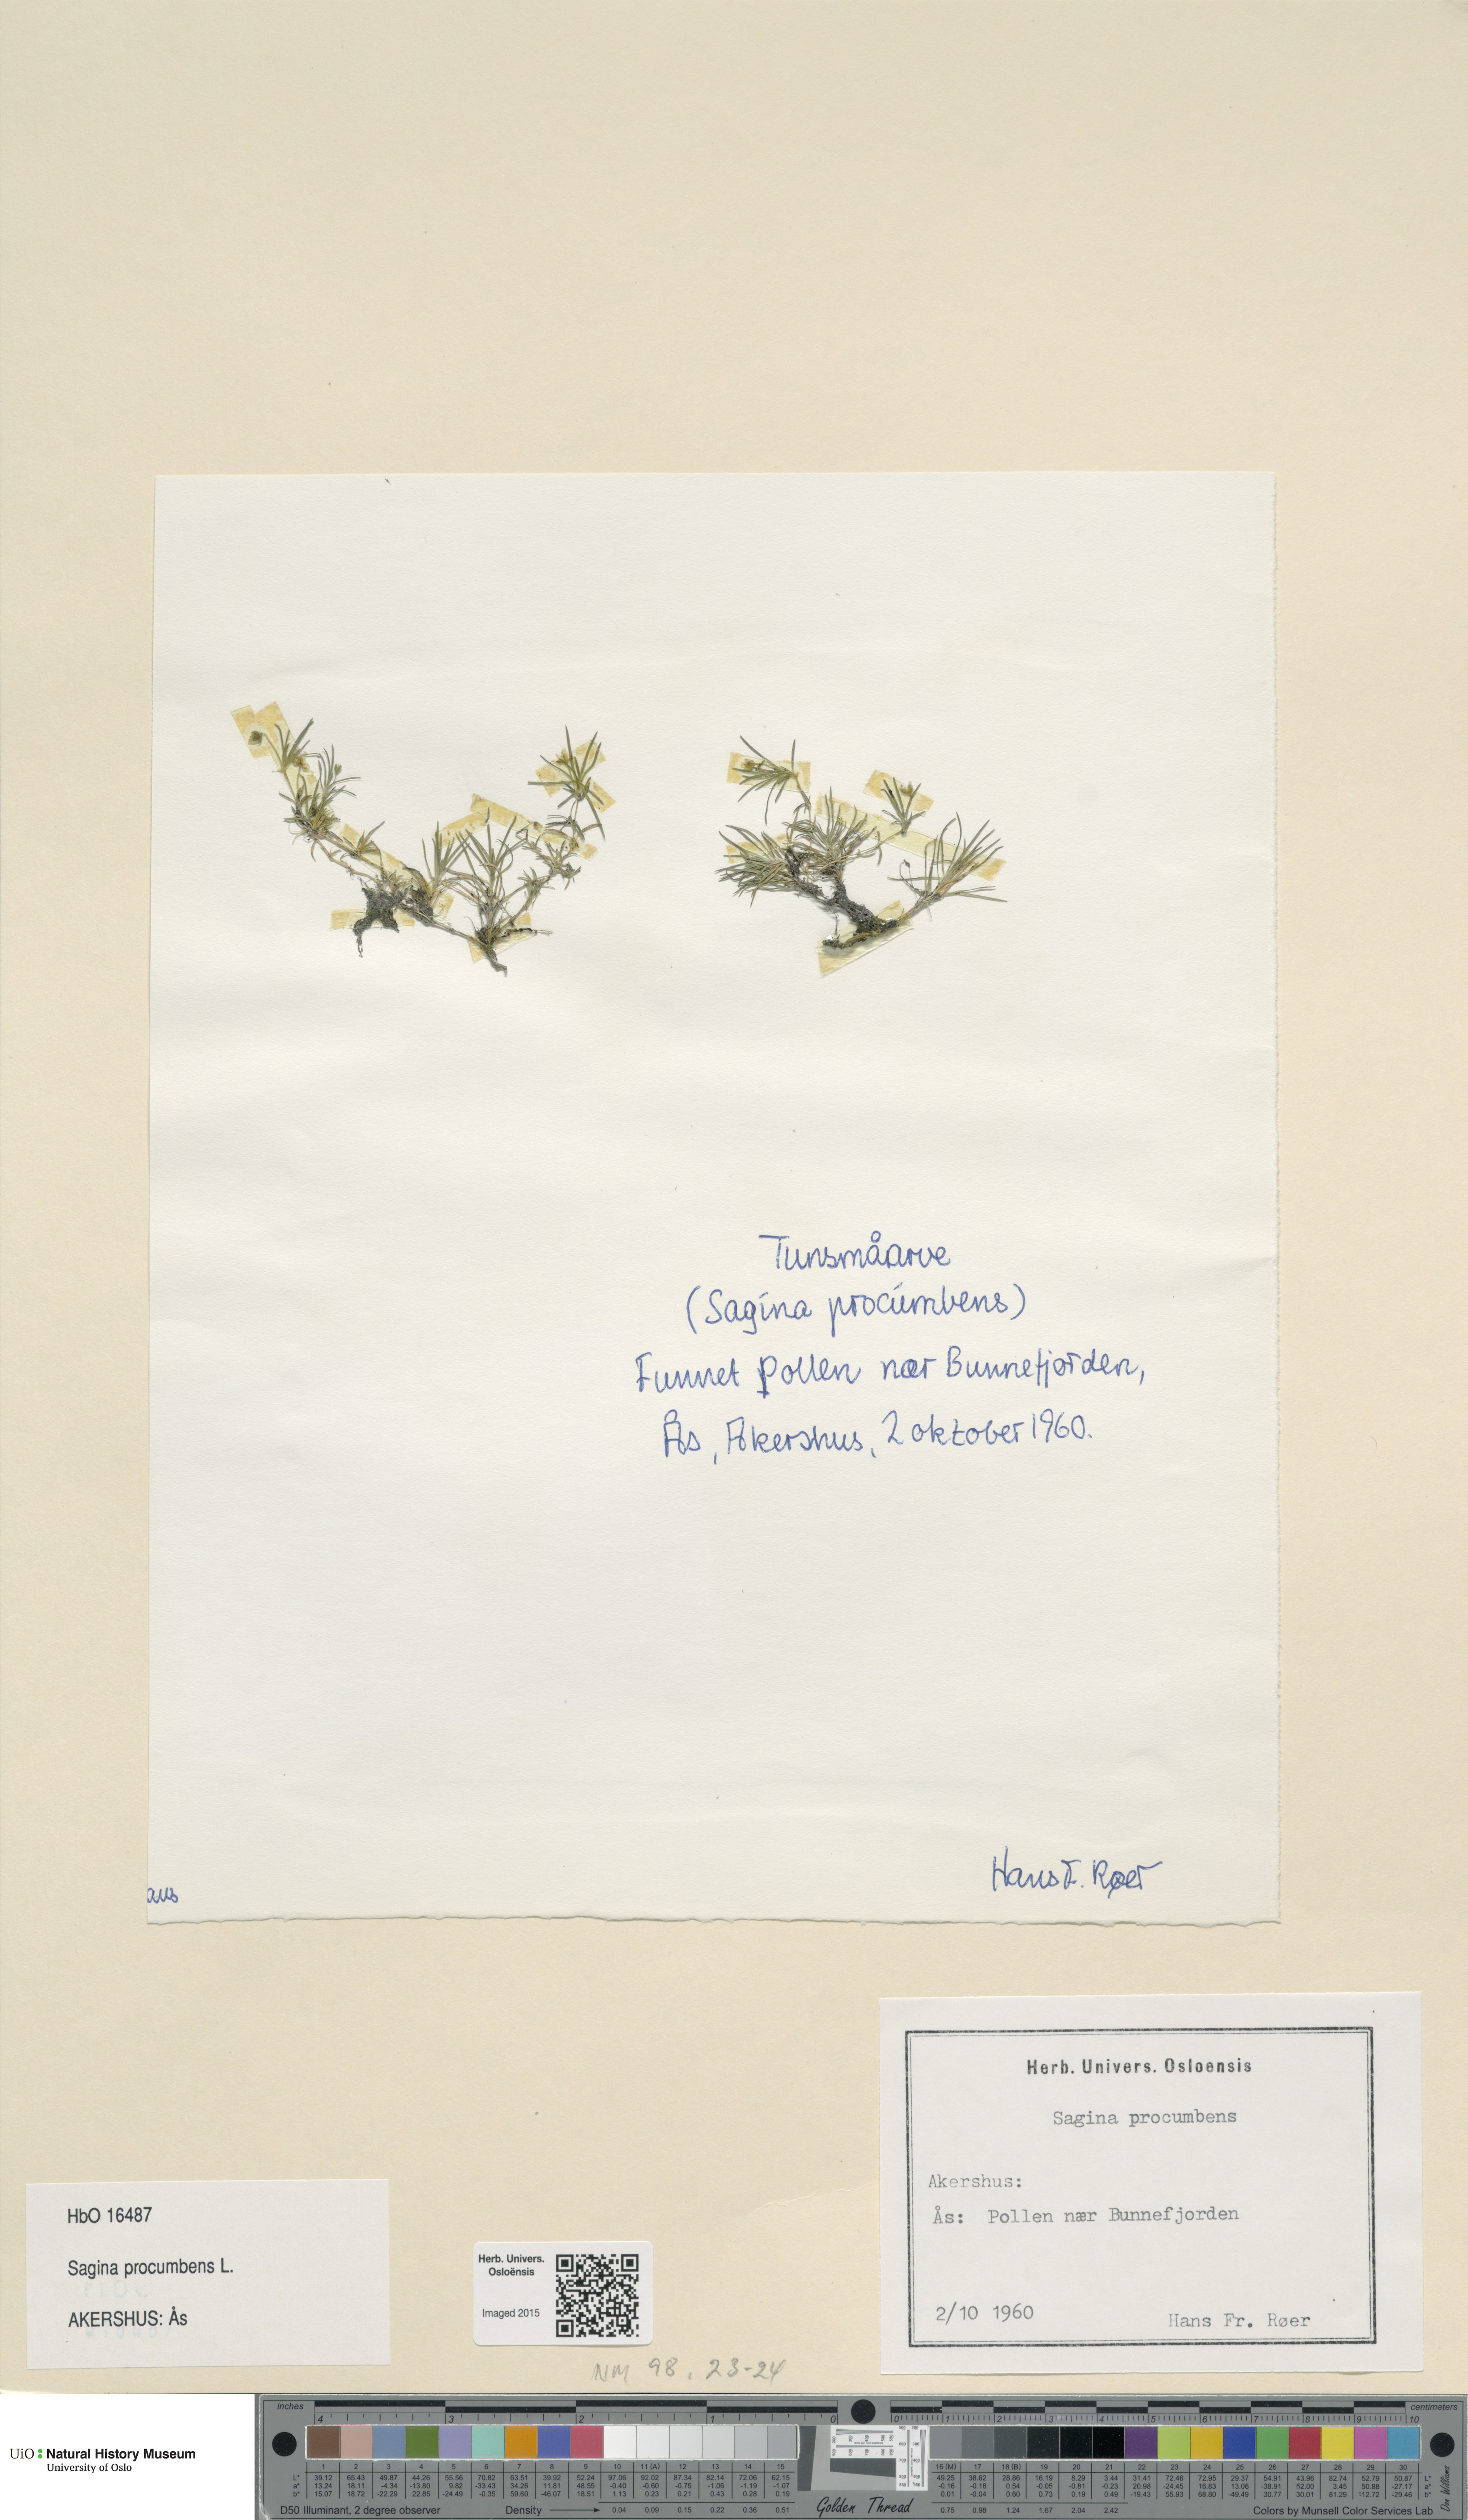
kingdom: Plantae
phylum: Tracheophyta
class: Magnoliopsida
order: Caryophyllales
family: Caryophyllaceae
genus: Sagina
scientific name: Sagina procumbens
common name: Procumbent pearlwort
